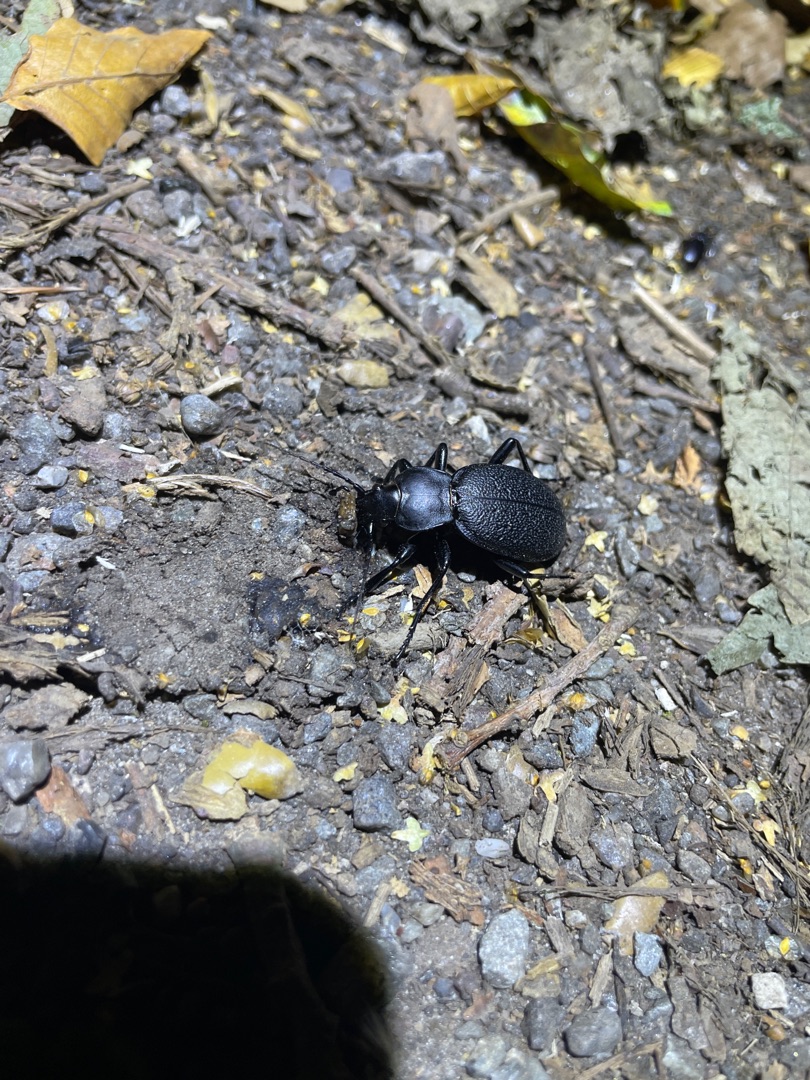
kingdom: Animalia
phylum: Arthropoda
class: Insecta
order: Coleoptera
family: Carabidae
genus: Carabus
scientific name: Carabus coriaceus
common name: Læderløber
